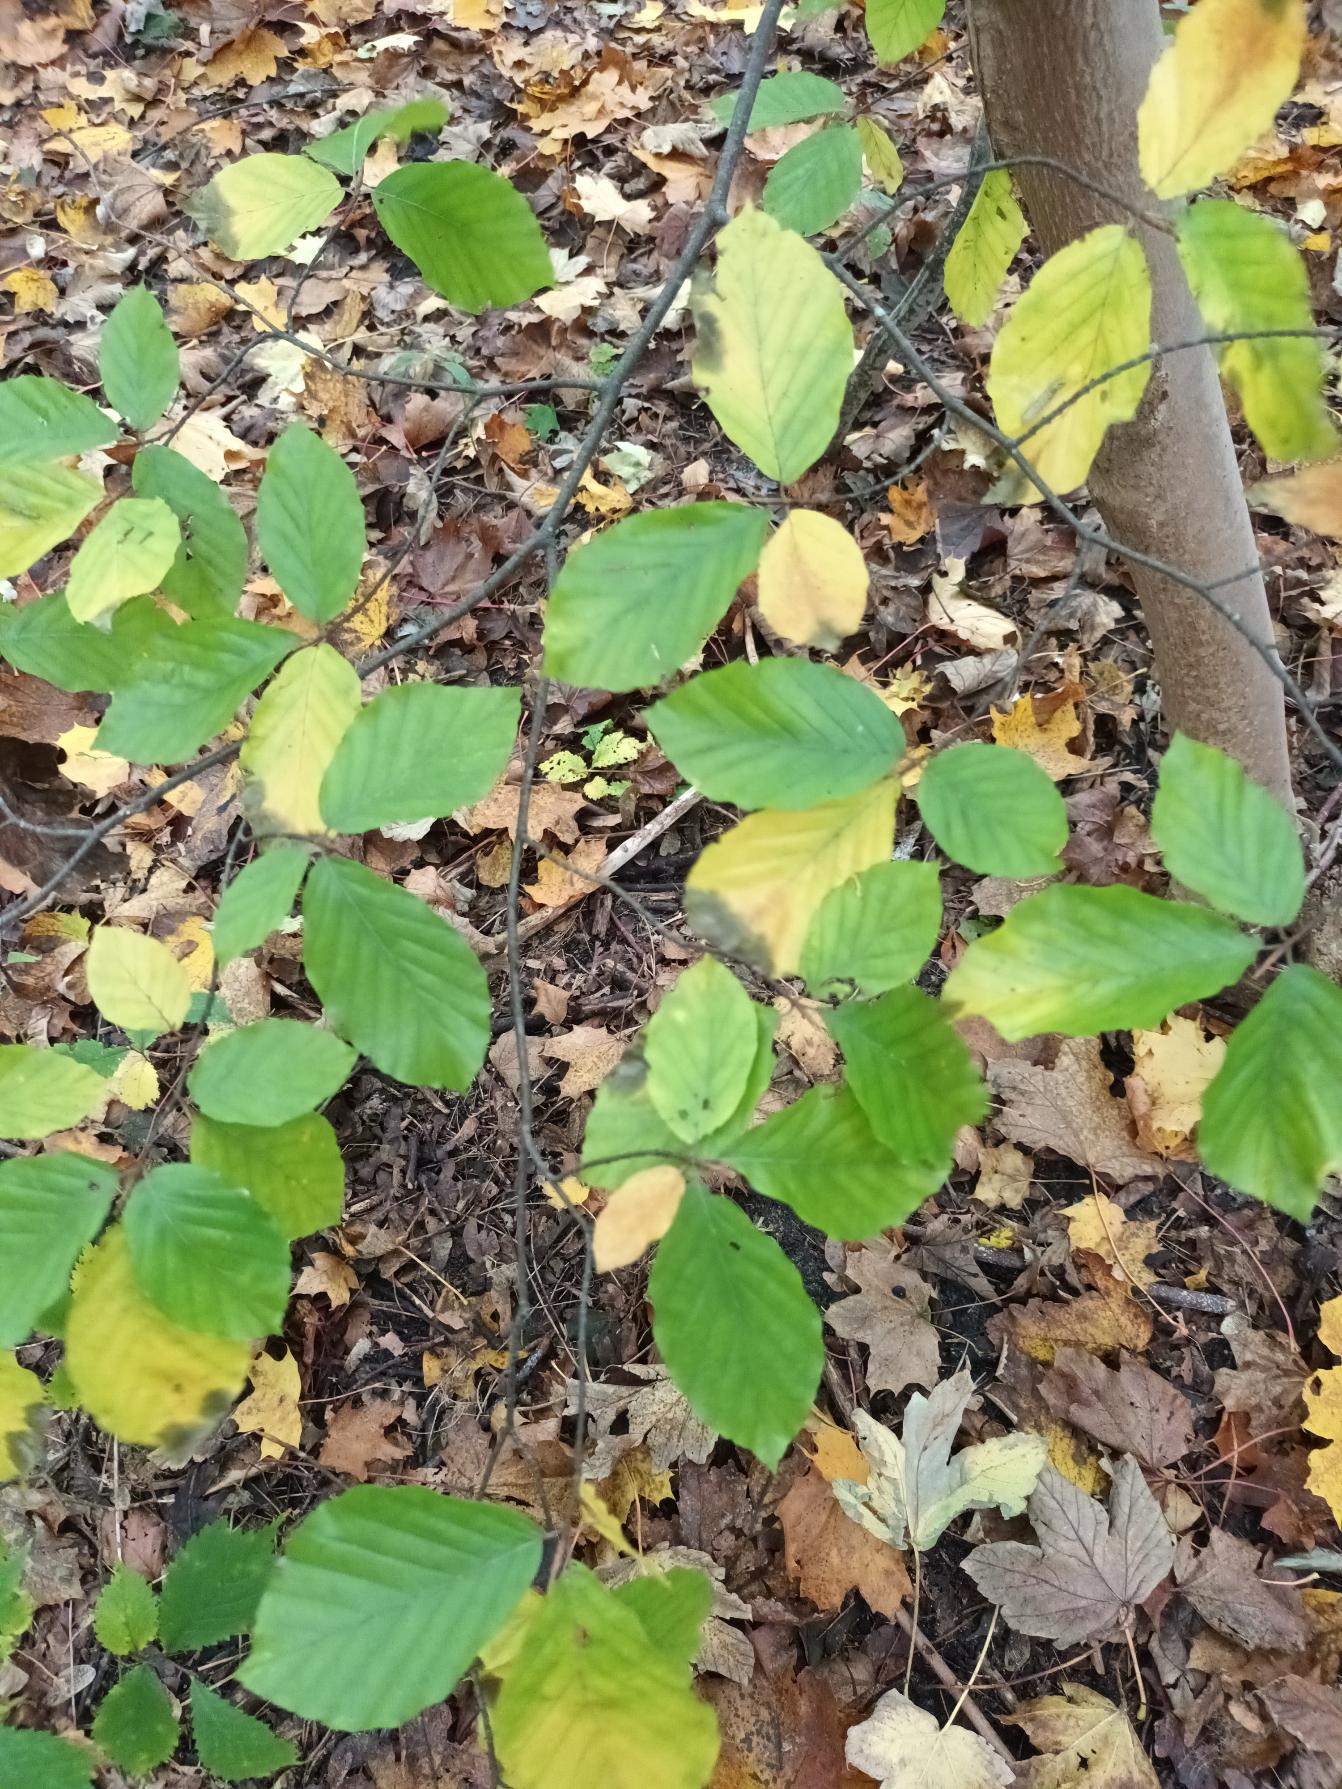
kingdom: Plantae
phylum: Tracheophyta
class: Magnoliopsida
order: Fagales
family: Fagaceae
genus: Fagus
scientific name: Fagus sylvatica
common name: Bøg
